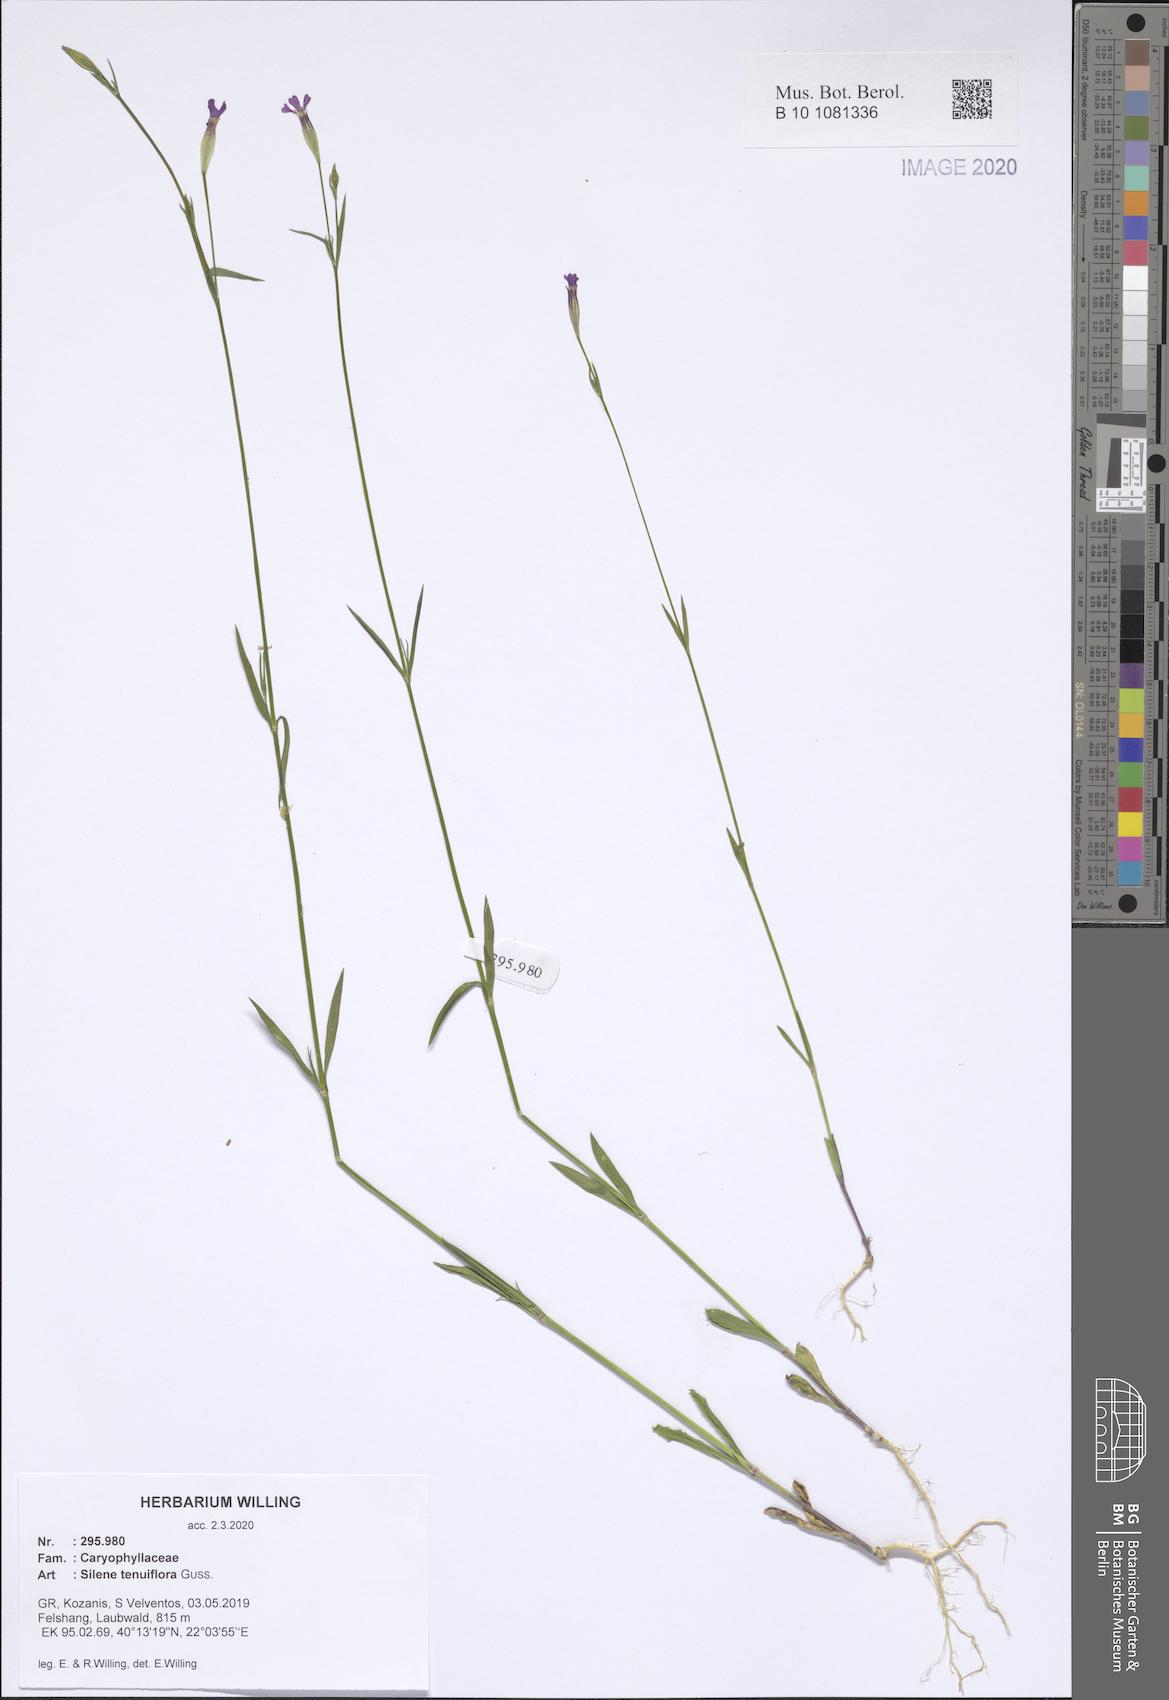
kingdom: Plantae
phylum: Tracheophyta
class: Magnoliopsida
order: Caryophyllales
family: Caryophyllaceae
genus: Silene
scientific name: Silene tenuiflora
